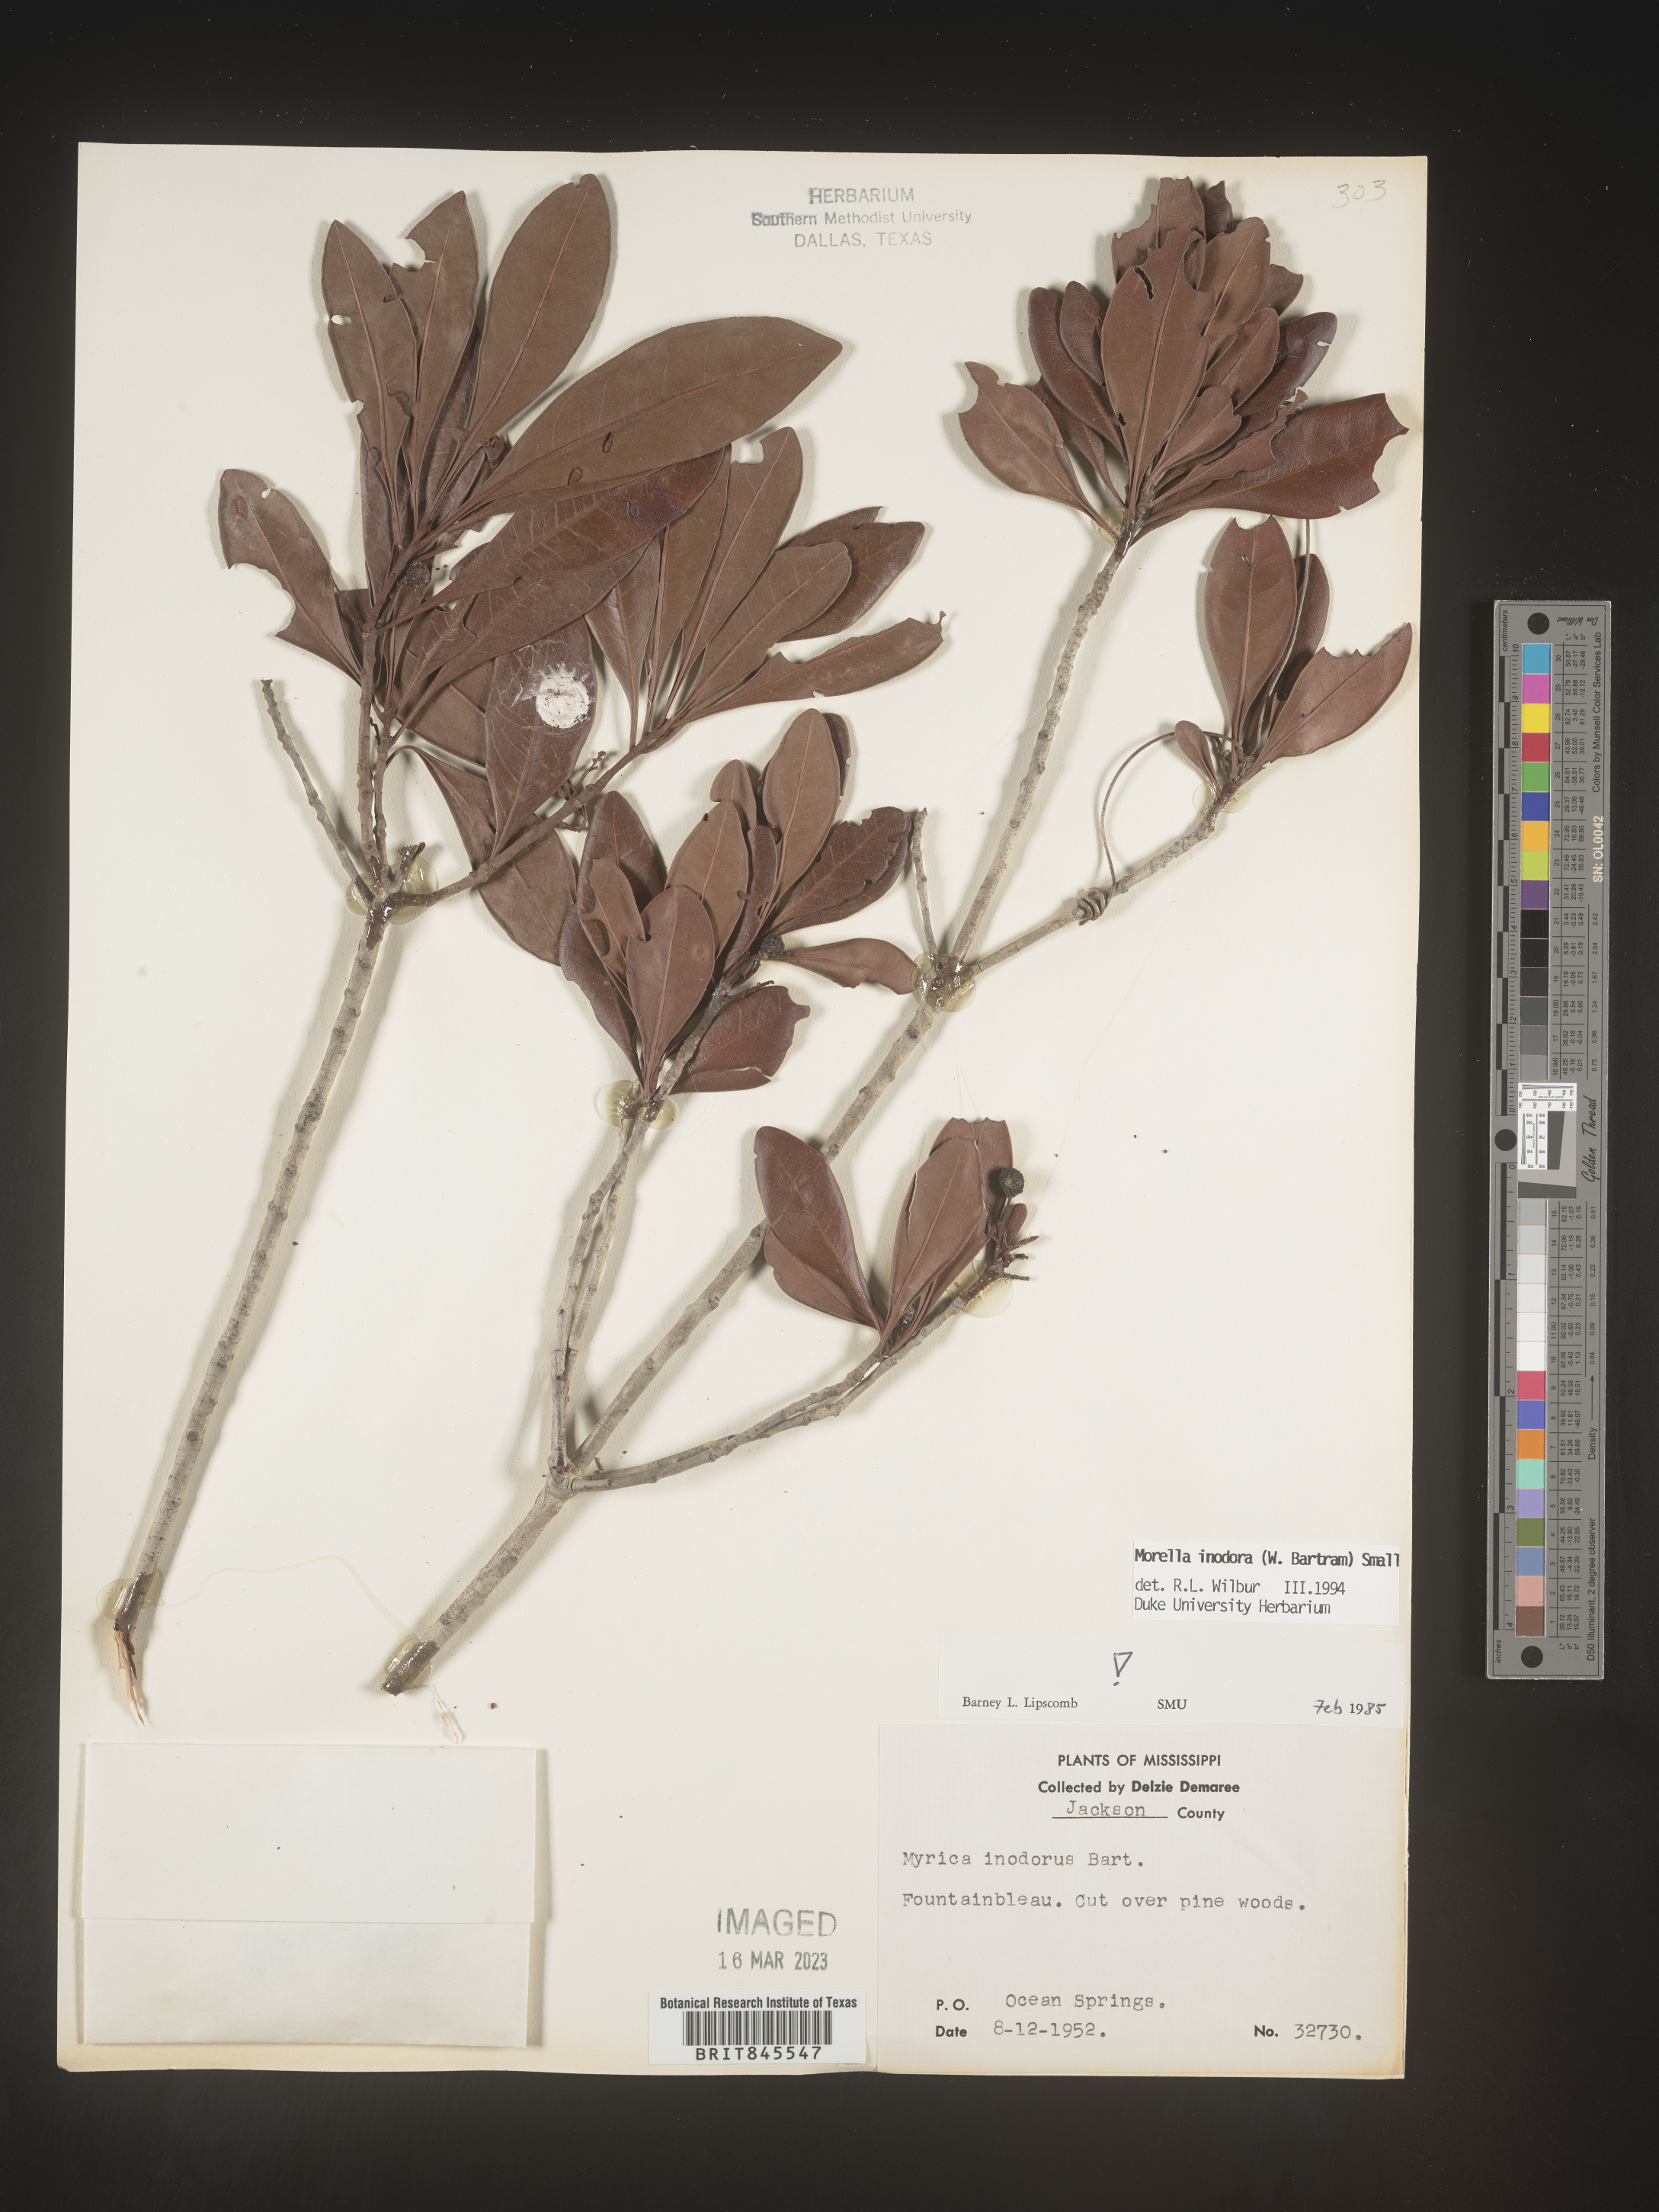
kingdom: Plantae
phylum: Tracheophyta
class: Magnoliopsida
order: Fagales
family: Myricaceae
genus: Myrica
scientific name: Myrica
